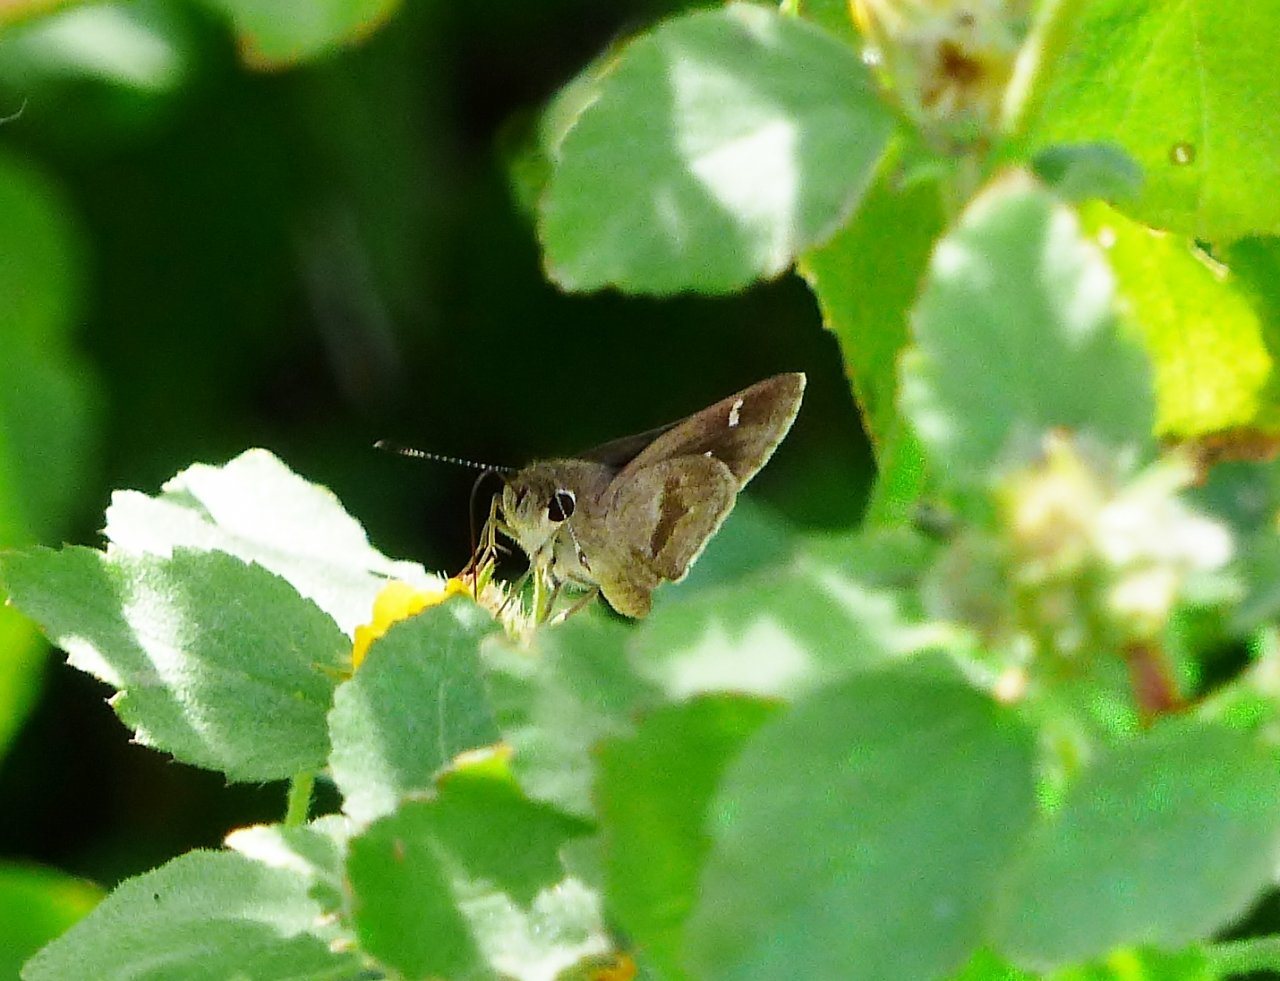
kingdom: Animalia
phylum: Arthropoda
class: Insecta
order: Lepidoptera
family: Hesperiidae
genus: Lerodea
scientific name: Lerodea arabus
